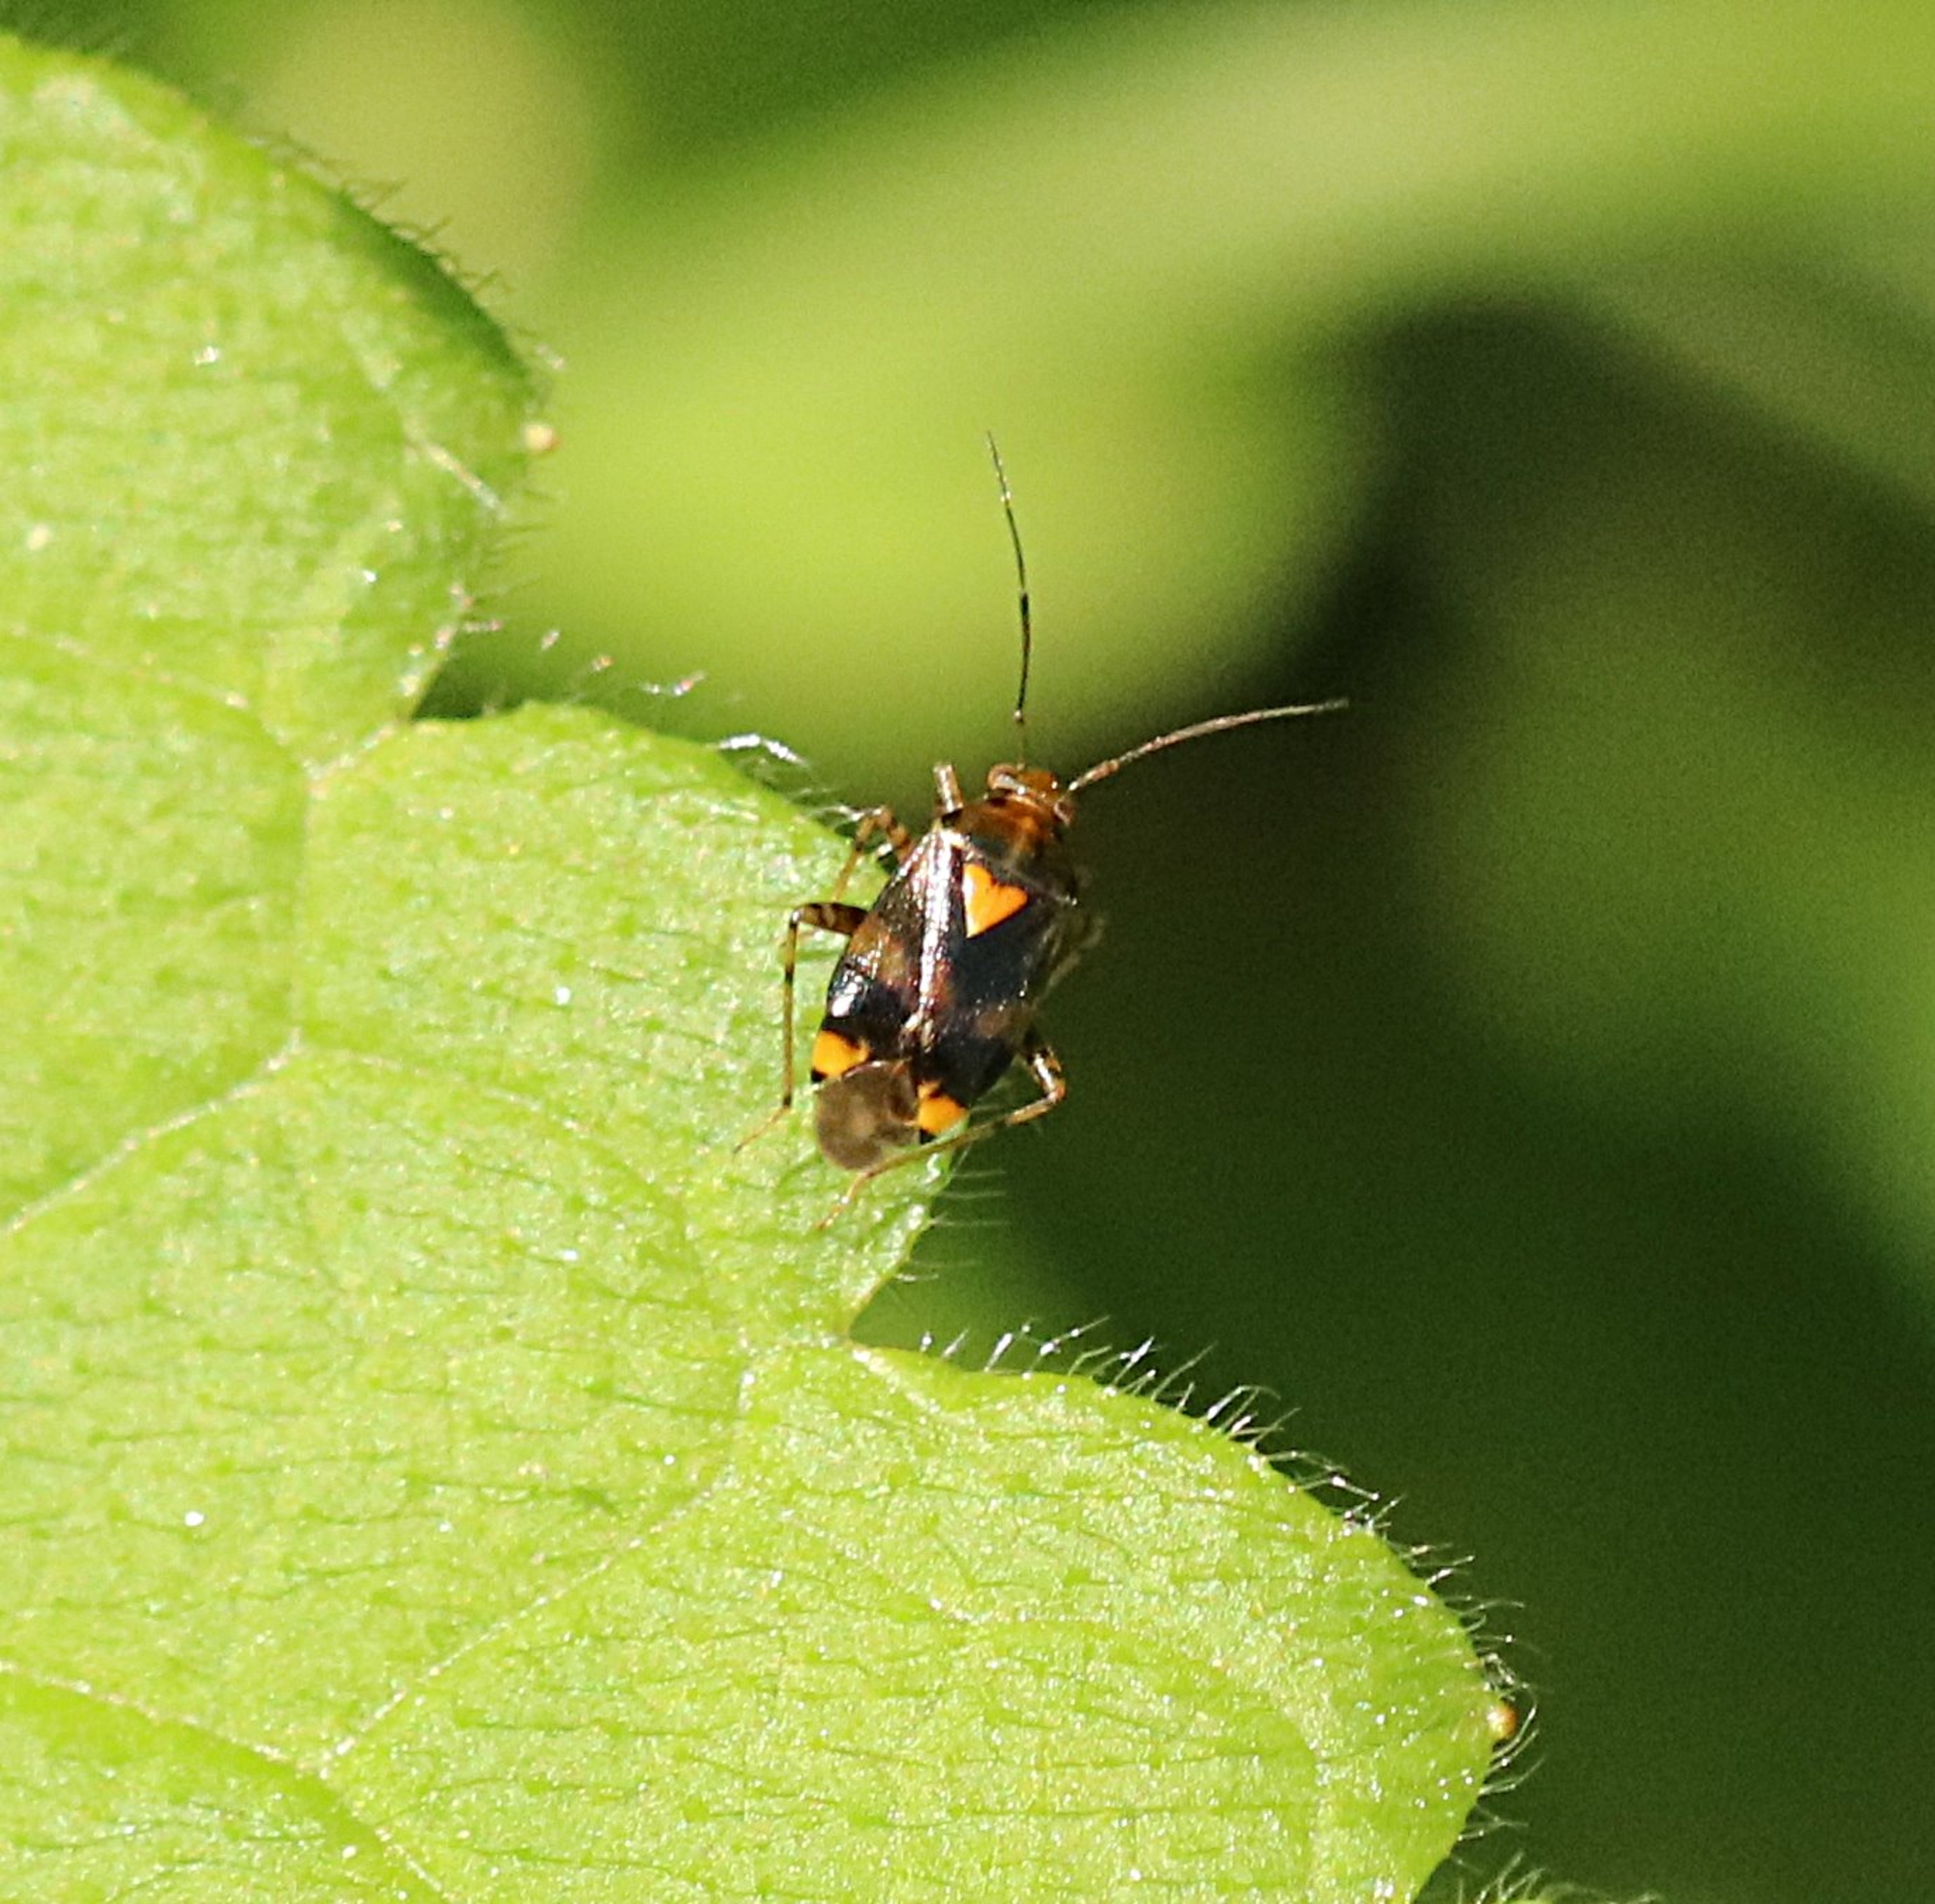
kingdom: Animalia
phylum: Arthropoda
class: Insecta
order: Hemiptera
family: Miridae
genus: Liocoris
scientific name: Liocoris tripustulatus
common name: Treplettet nældetæge
